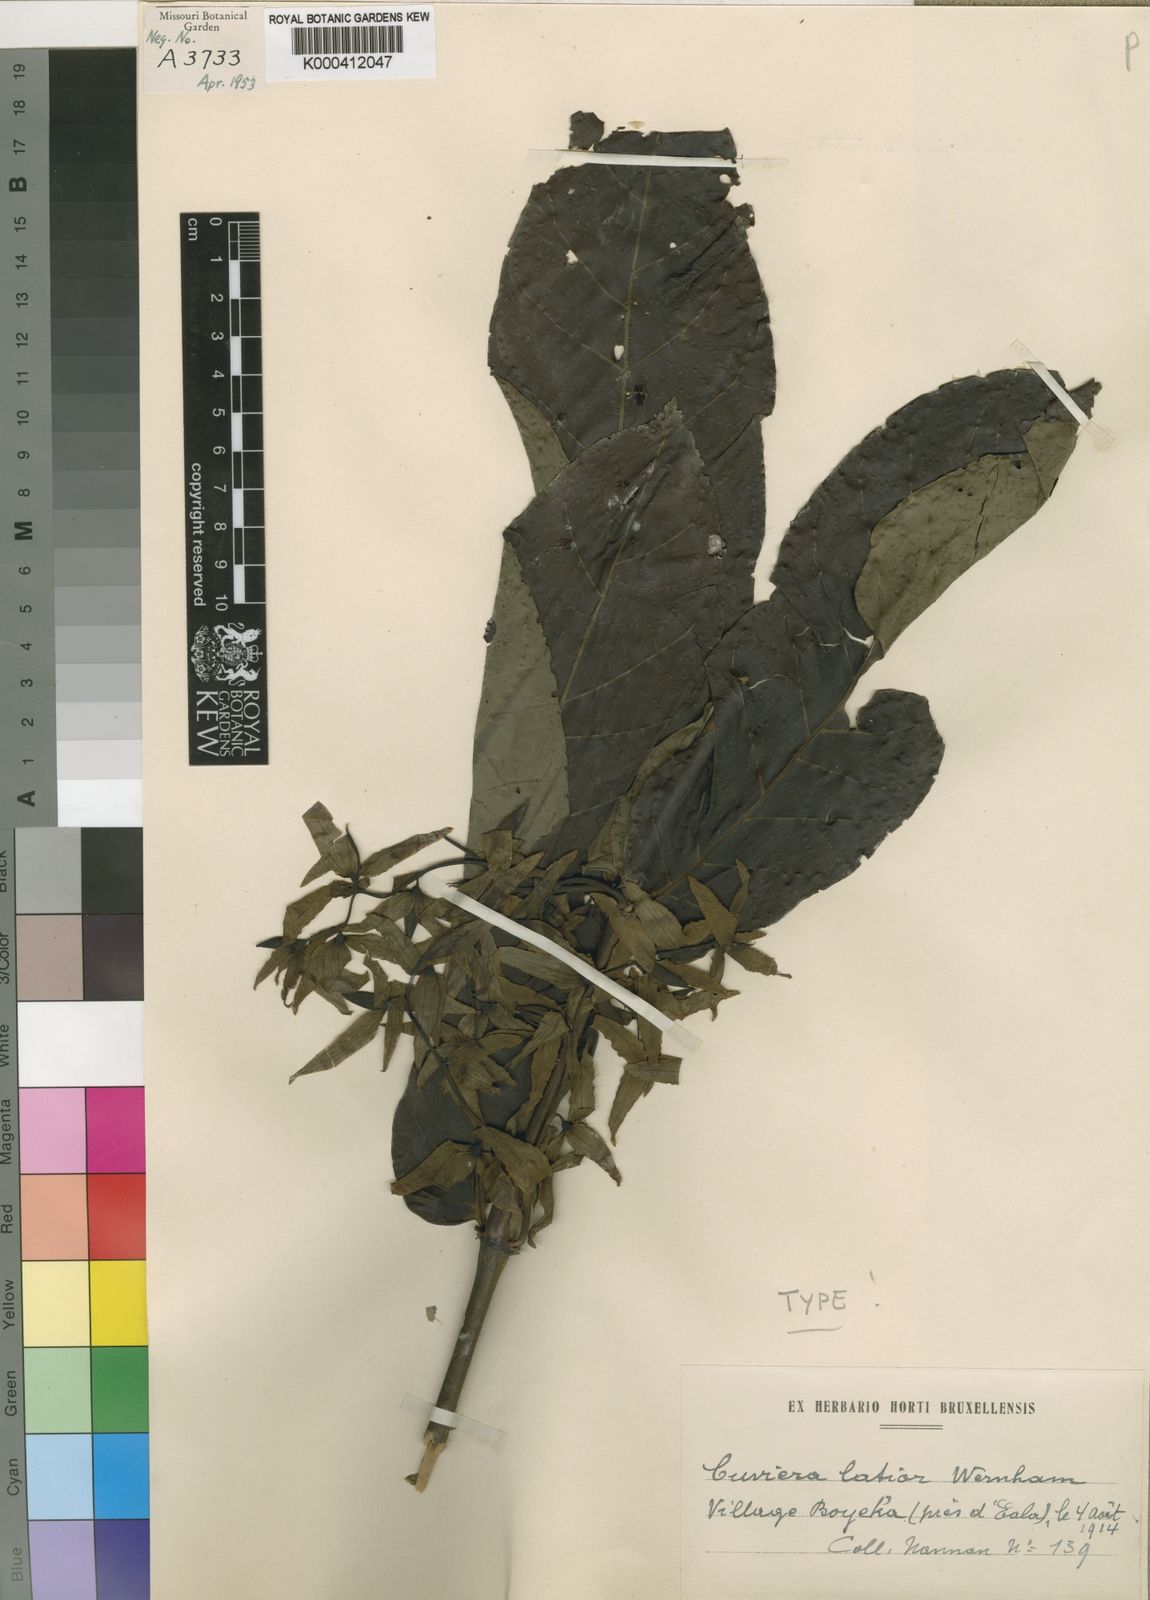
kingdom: Plantae
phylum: Tracheophyta
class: Magnoliopsida
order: Gentianales
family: Rubiaceae
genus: Cuviera
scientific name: Cuviera angolensis
